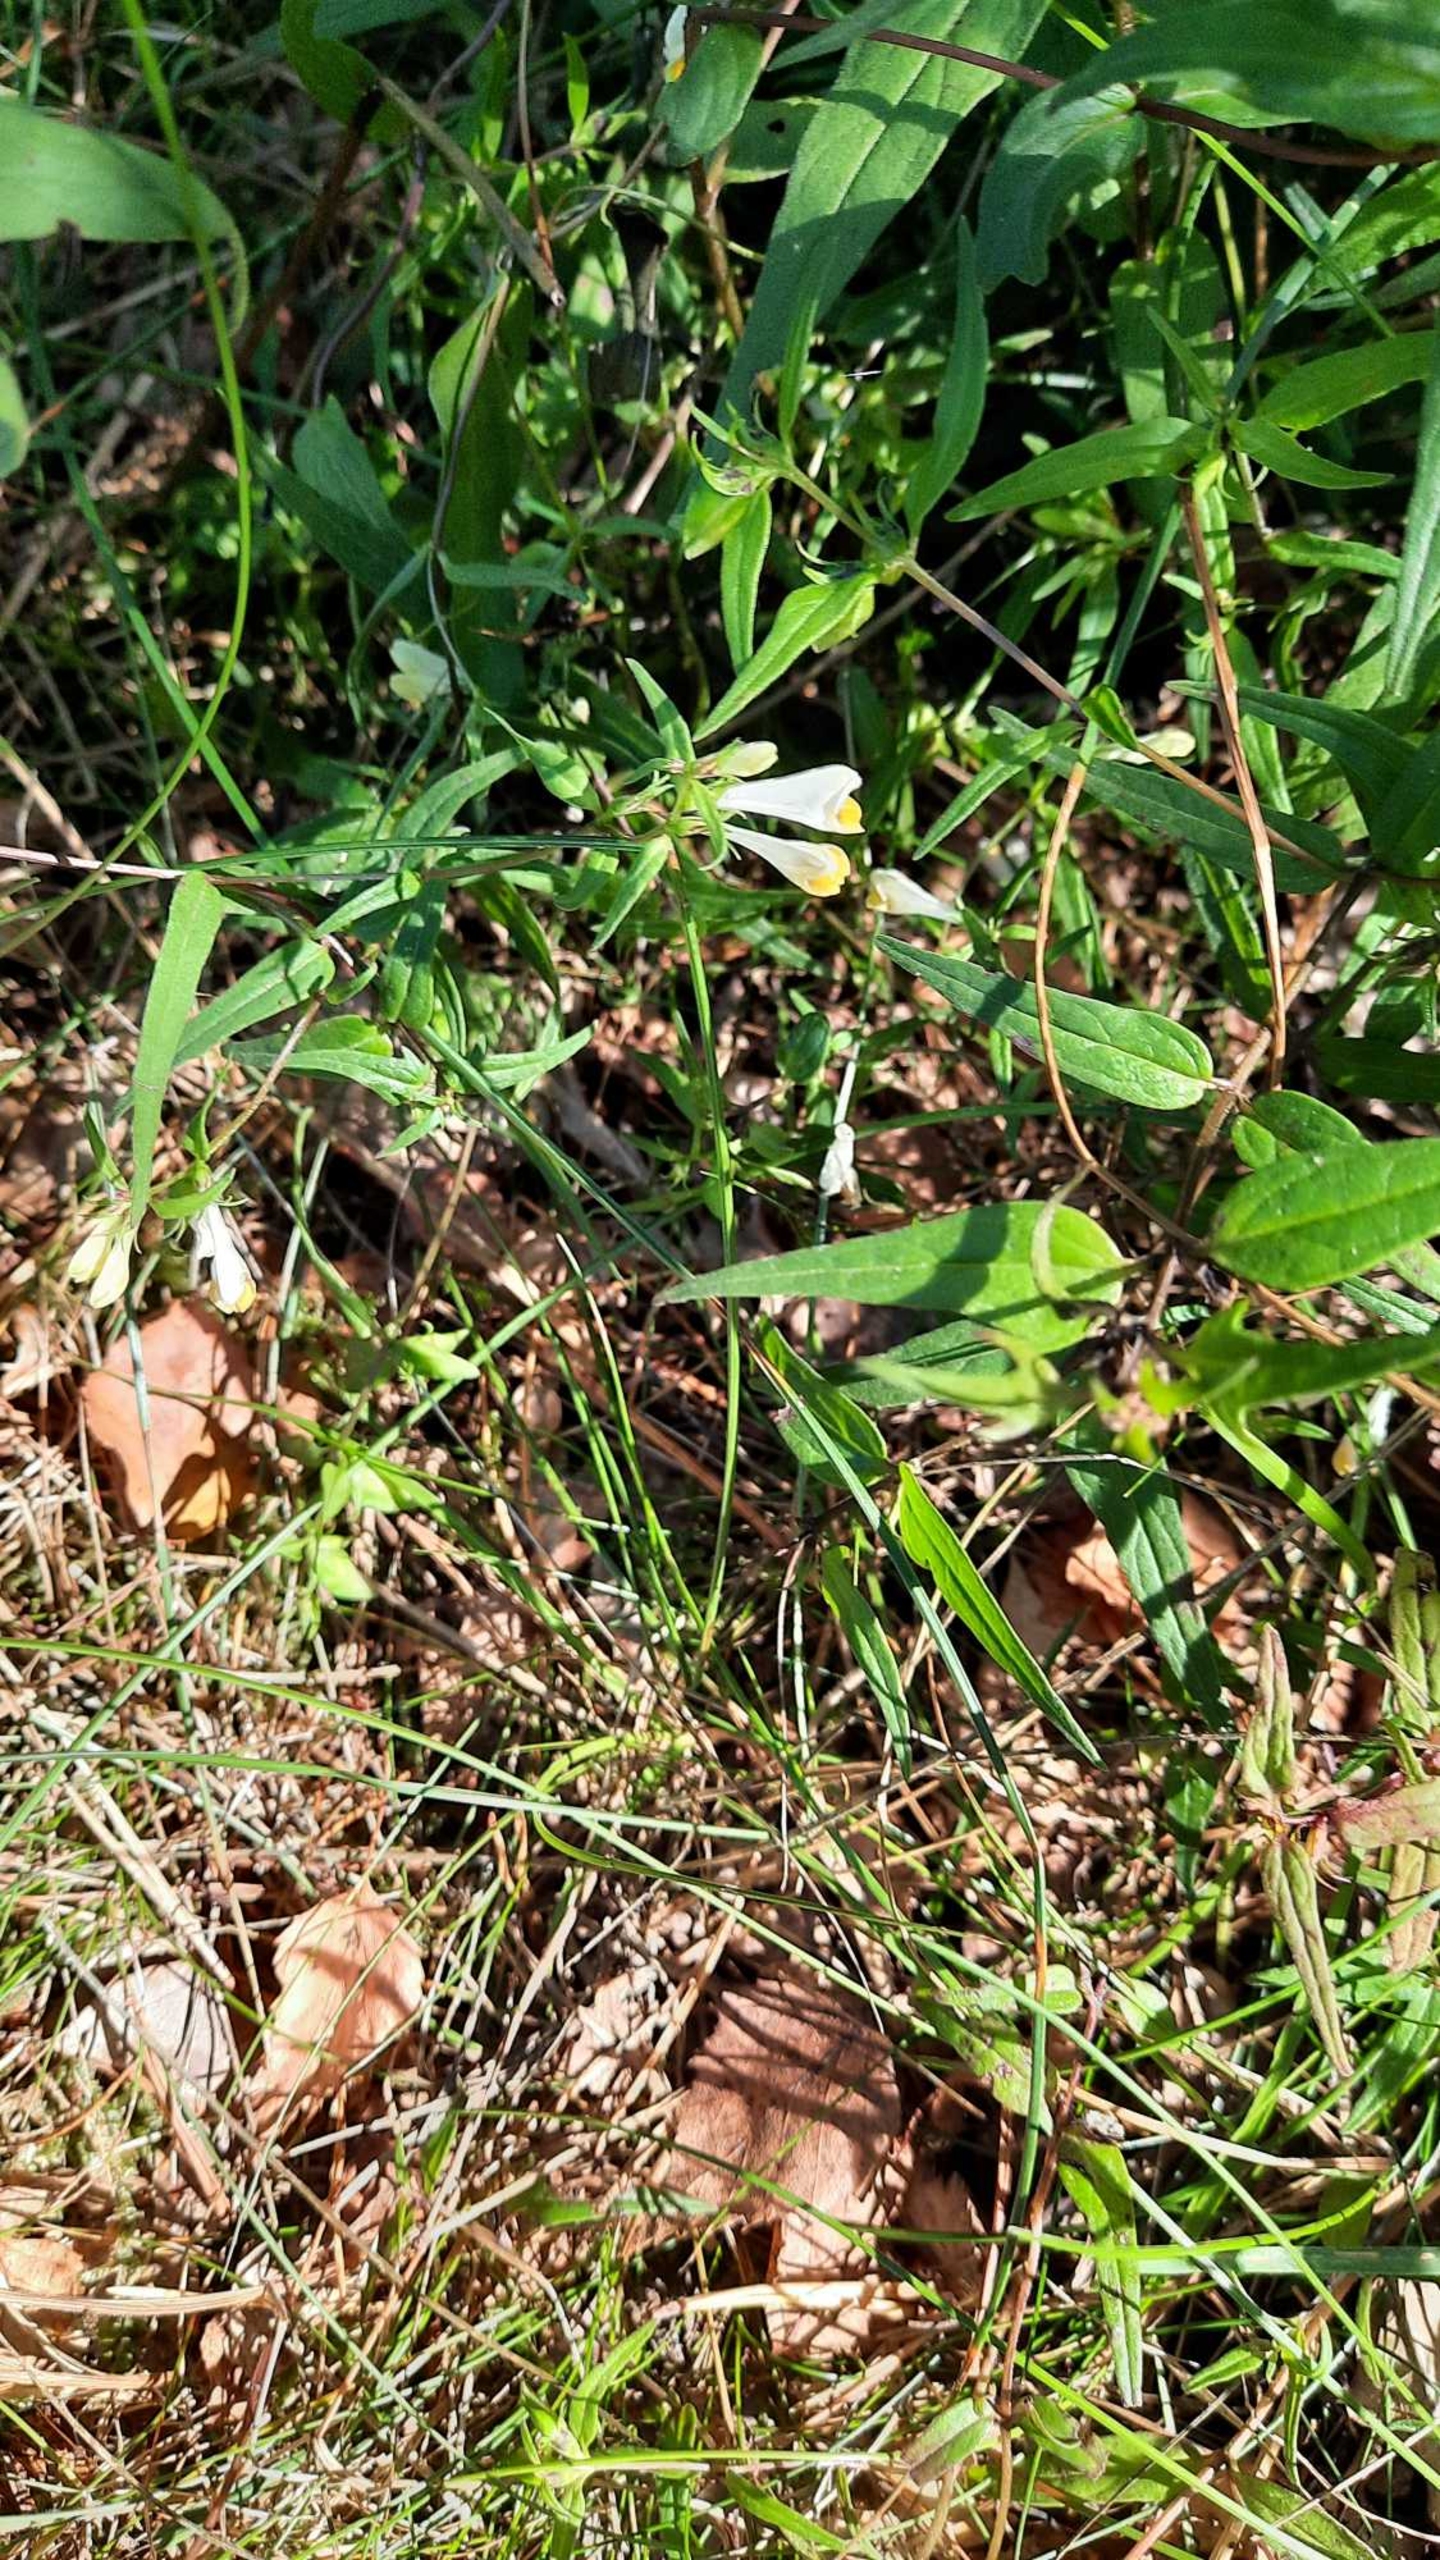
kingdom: Plantae
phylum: Tracheophyta
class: Magnoliopsida
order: Lamiales
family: Orobanchaceae
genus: Melampyrum
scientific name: Melampyrum pratense
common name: Almindelig kohvede
